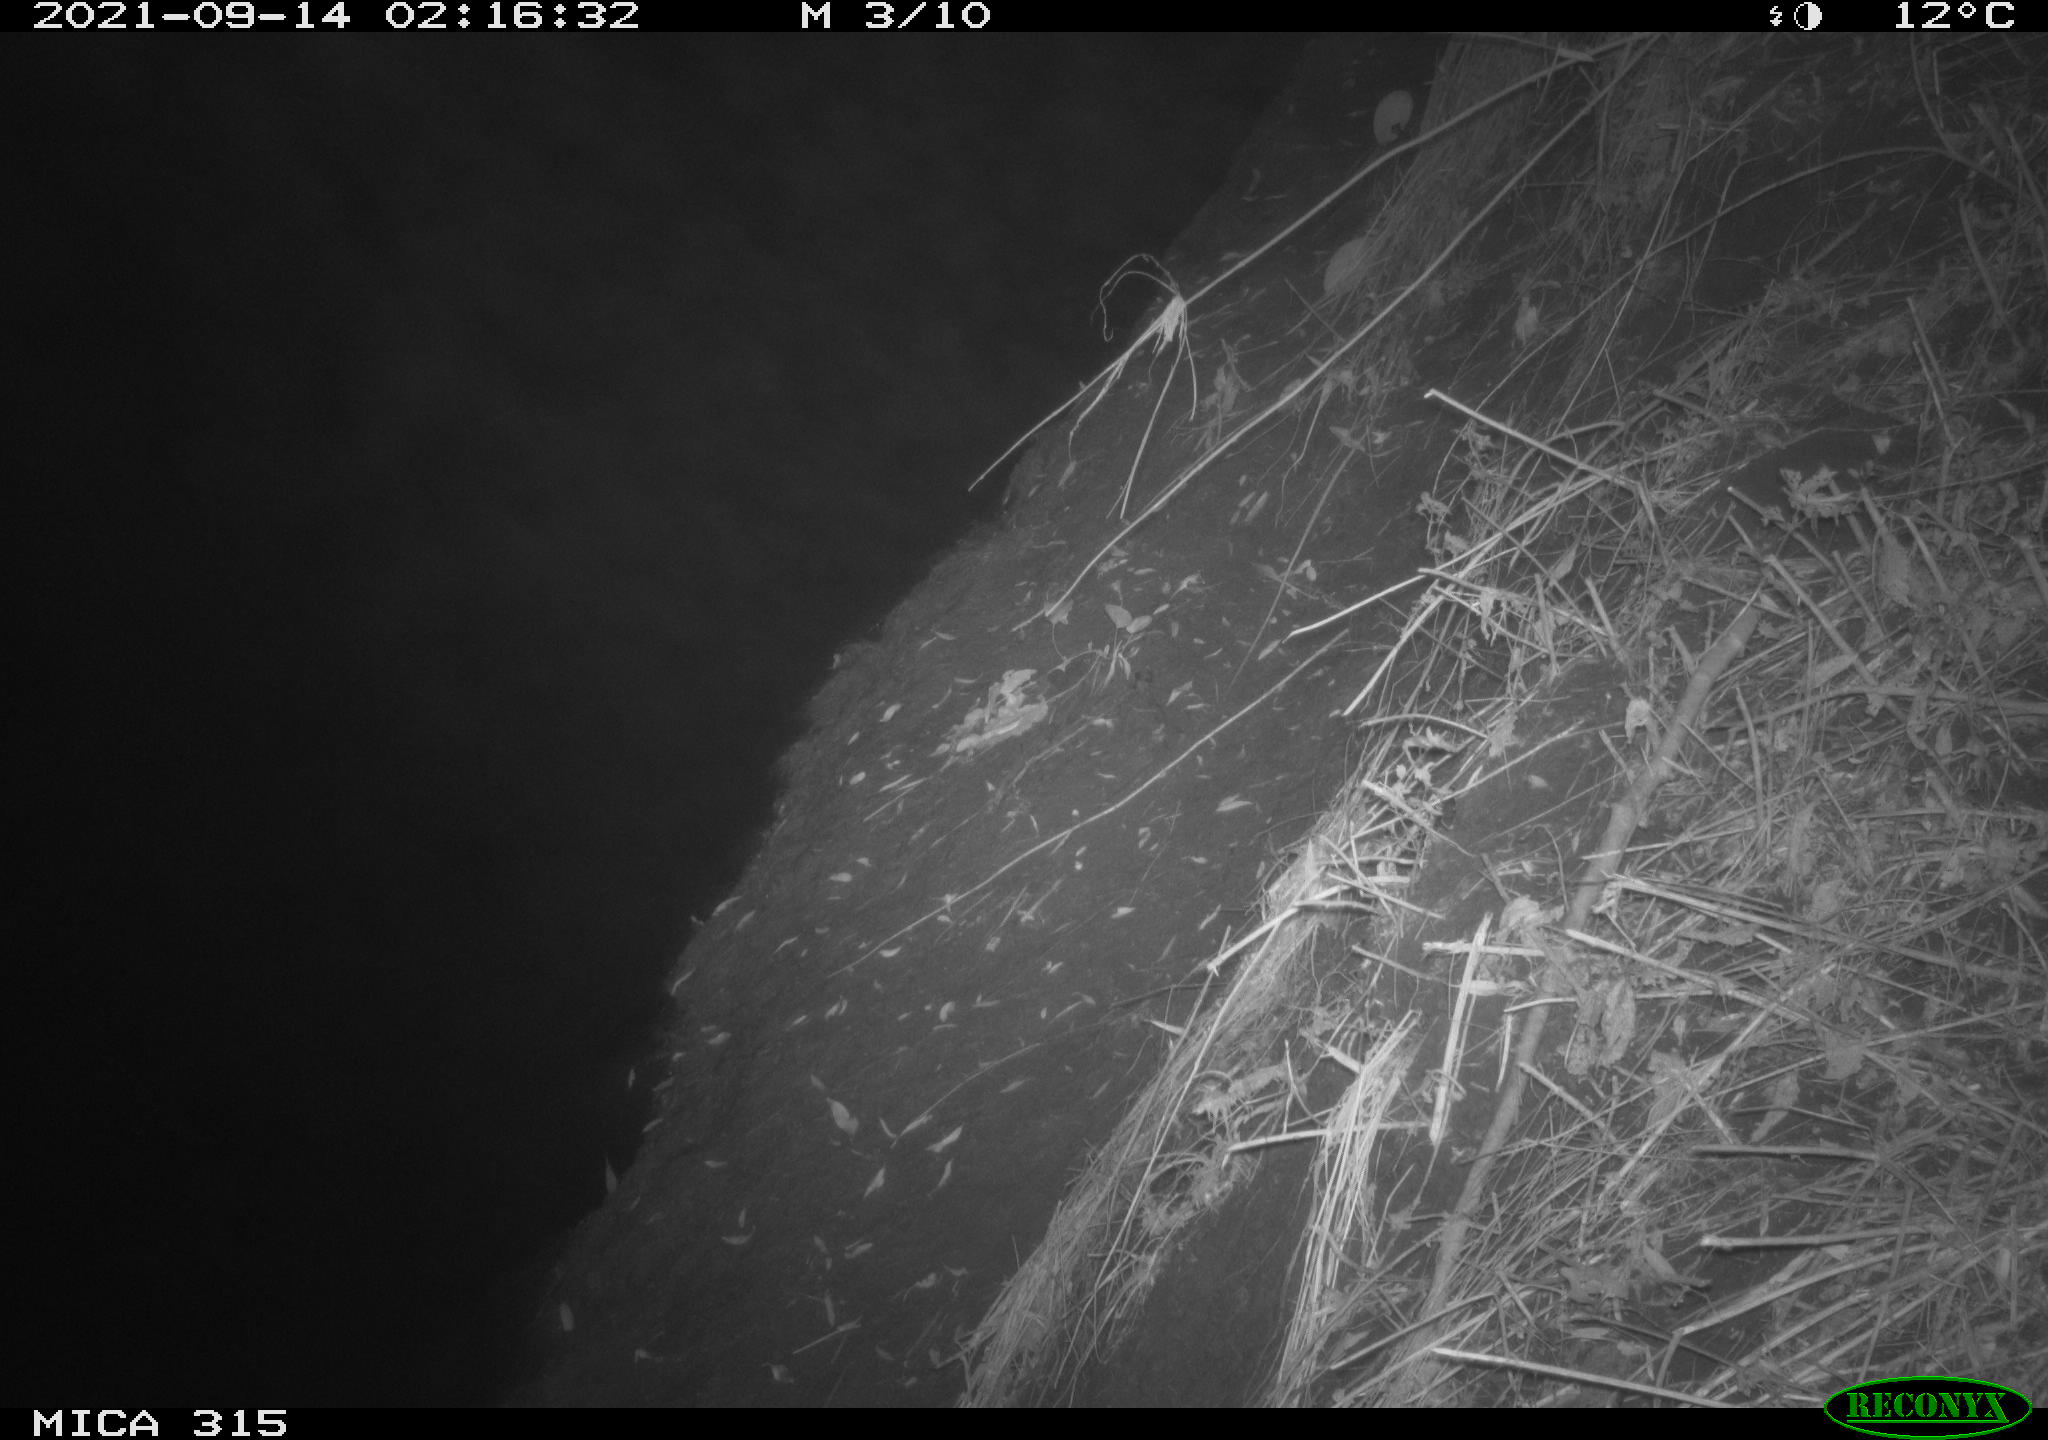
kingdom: Animalia
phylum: Chordata
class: Mammalia
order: Rodentia
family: Muridae
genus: Rattus
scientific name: Rattus norvegicus
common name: Brown rat
